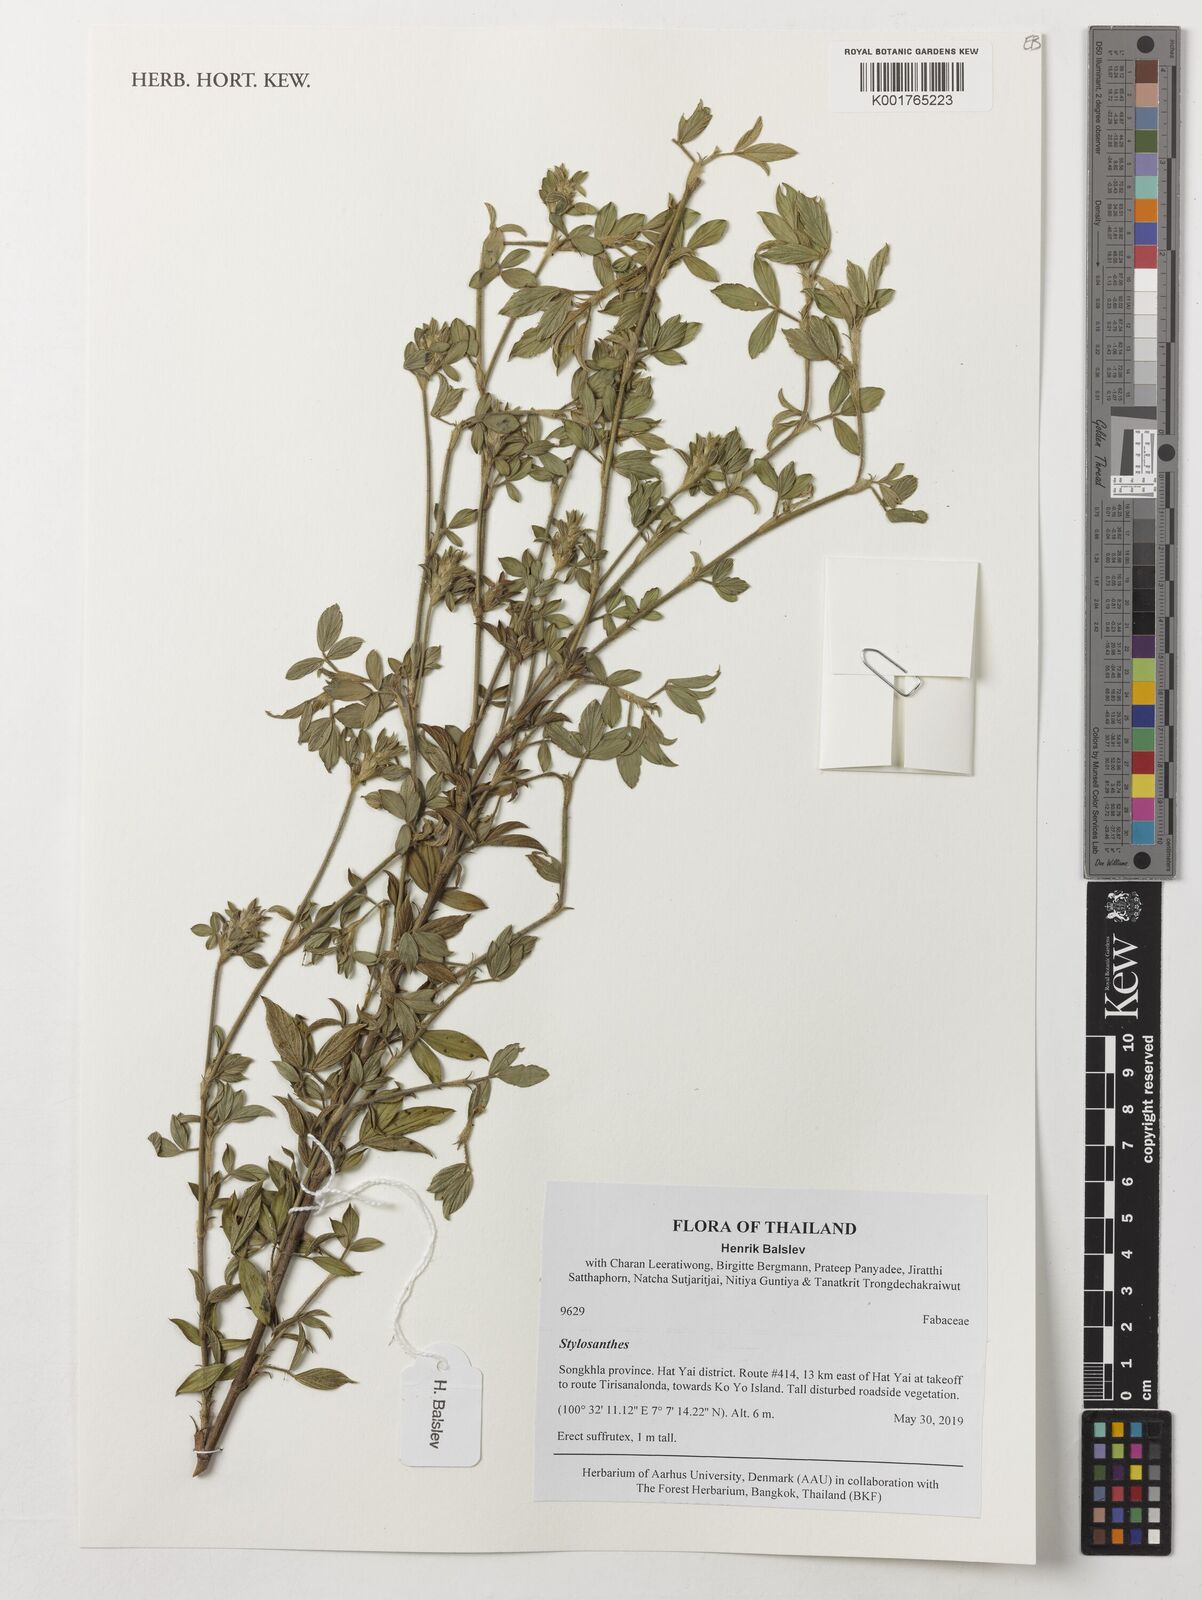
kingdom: Plantae
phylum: Tracheophyta
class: Magnoliopsida
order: Fabales
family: Fabaceae
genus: Stylosanthes
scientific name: Stylosanthes
